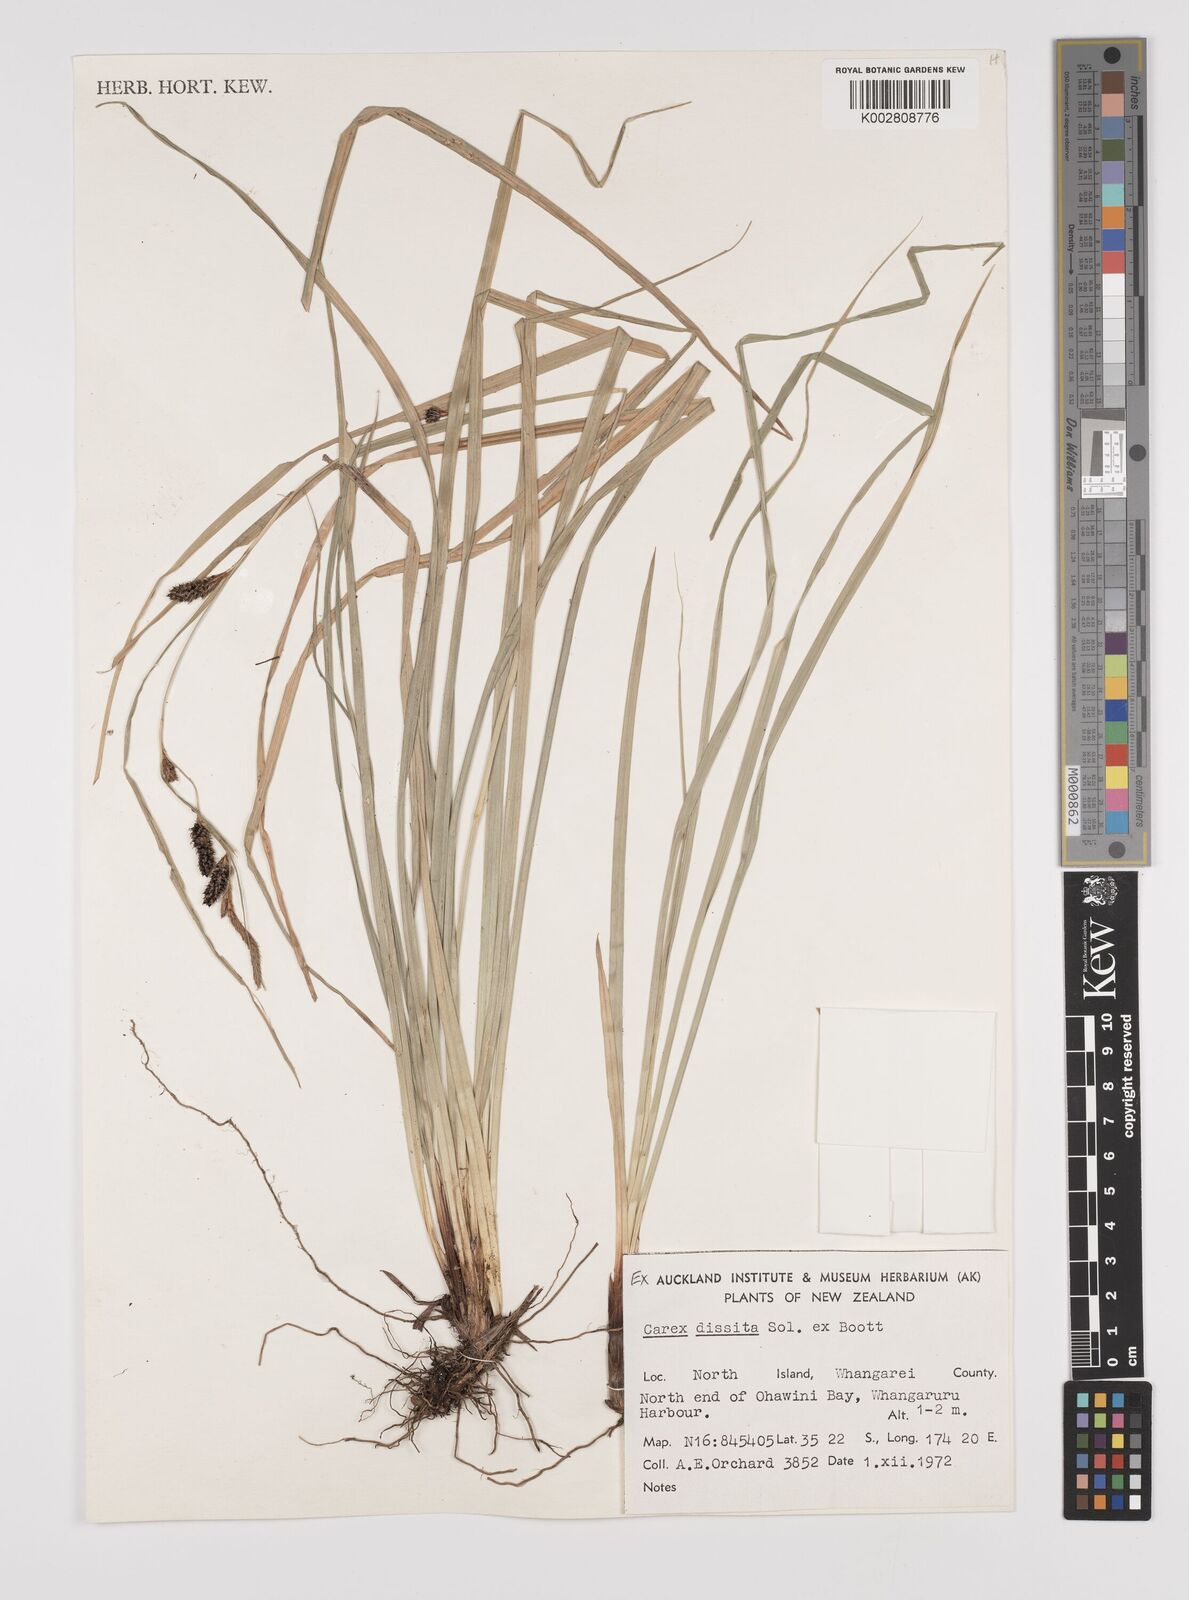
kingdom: Plantae
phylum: Tracheophyta
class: Liliopsida
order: Poales
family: Cyperaceae
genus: Carex
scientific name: Carex dissita
